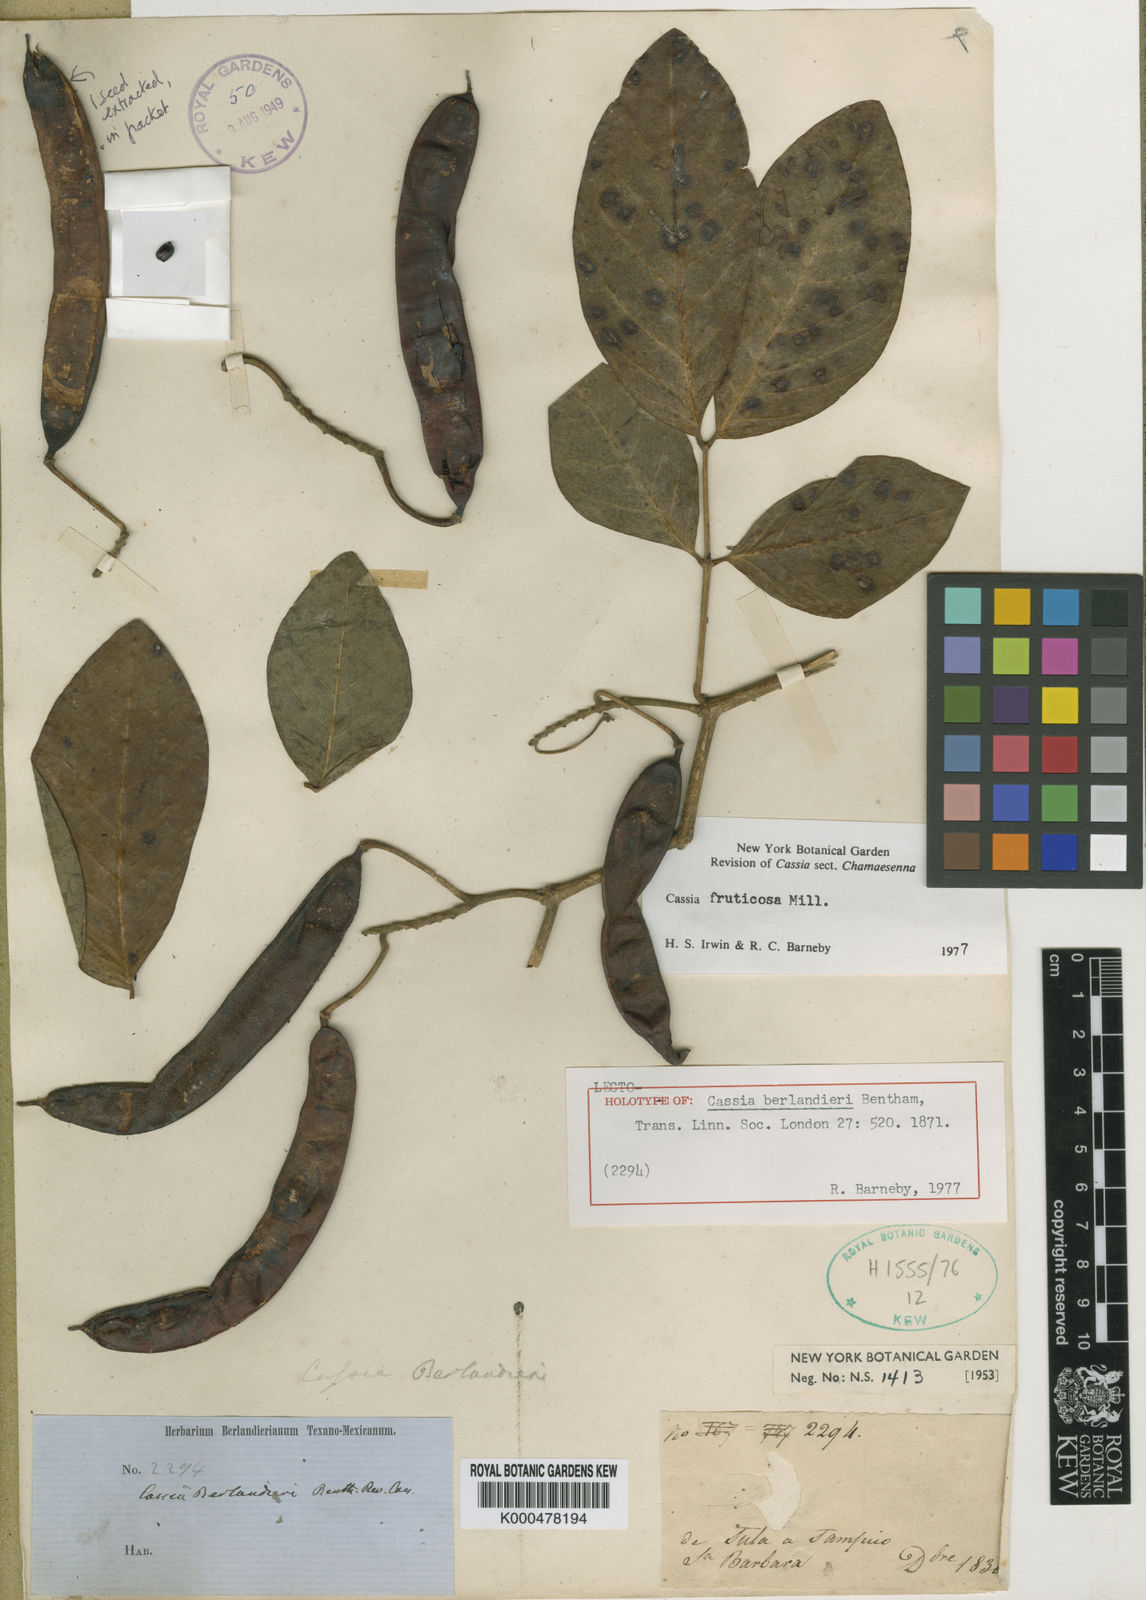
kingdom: Plantae
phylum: Tracheophyta
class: Magnoliopsida
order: Fabales
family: Fabaceae
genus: Senna
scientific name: Senna fruticosa
